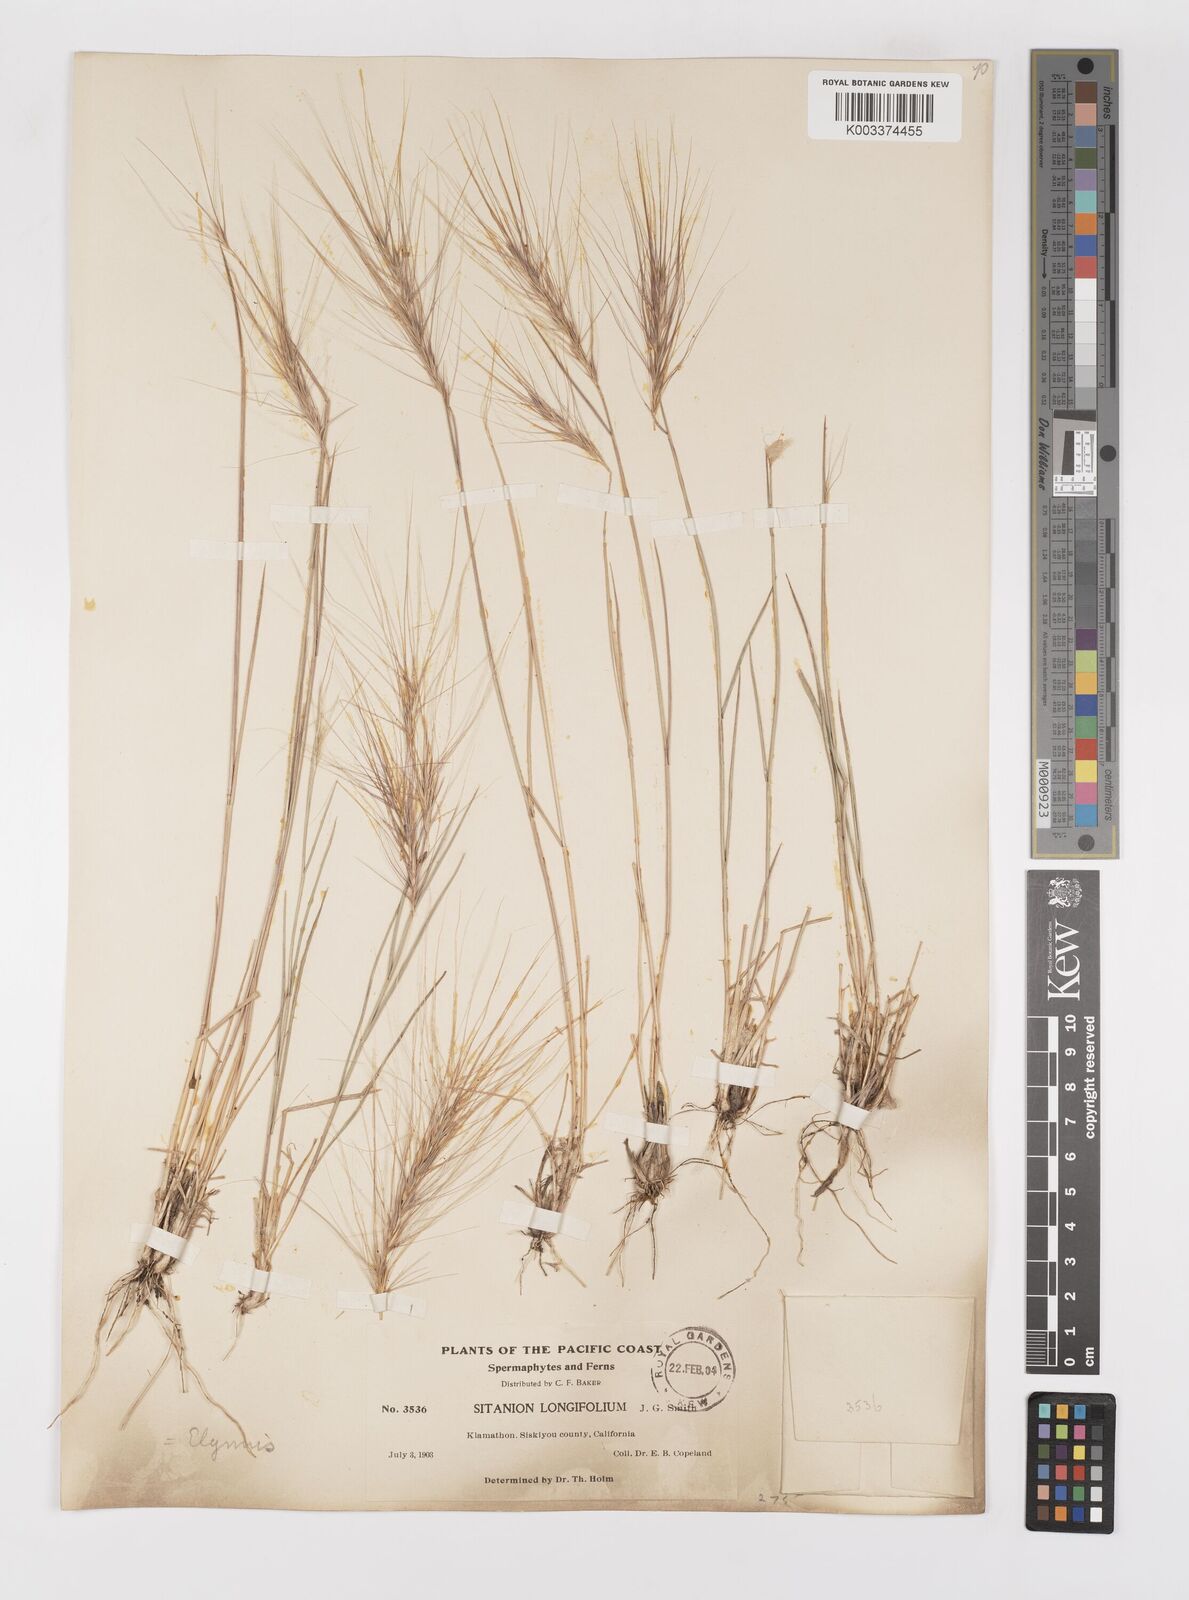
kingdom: Plantae
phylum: Tracheophyta
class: Liliopsida
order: Poales
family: Poaceae
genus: Elymus
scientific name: Elymus multisetus
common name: Big squirreltail
